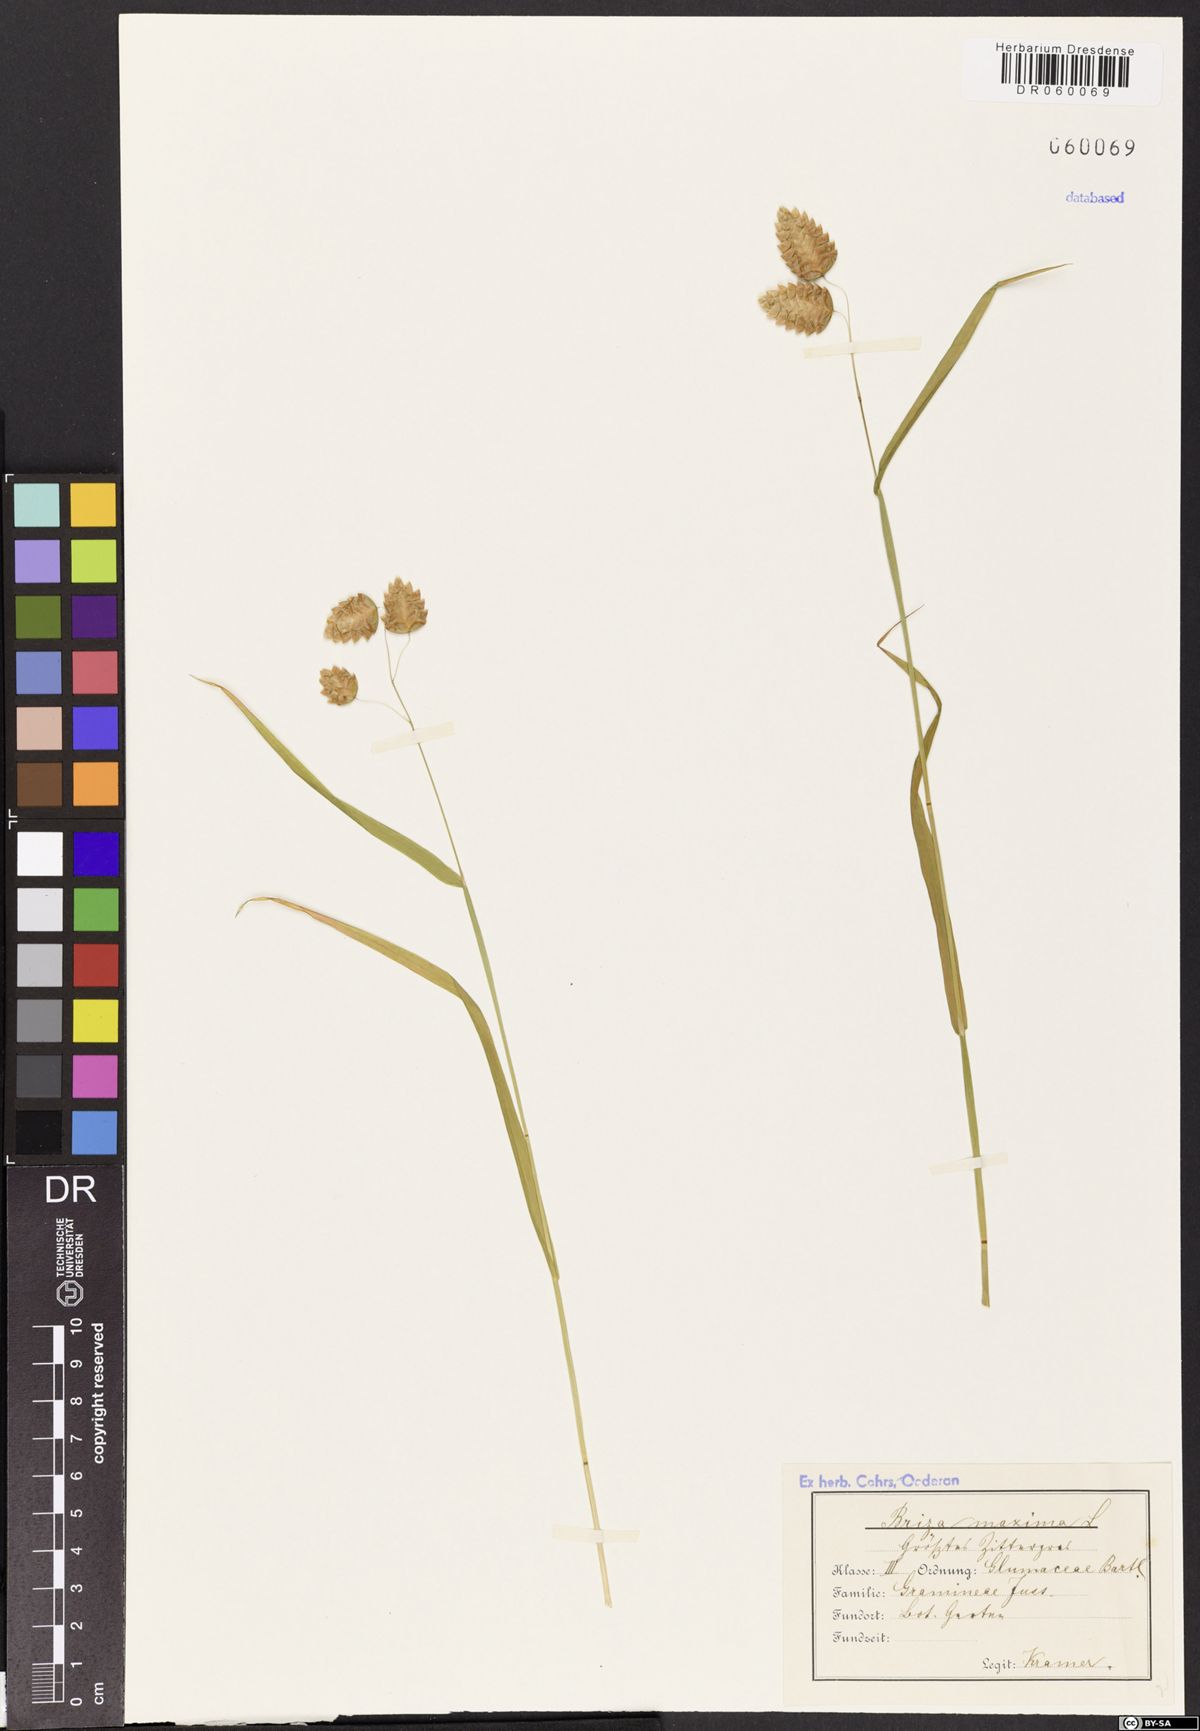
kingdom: Plantae
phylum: Tracheophyta
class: Liliopsida
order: Poales
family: Poaceae
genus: Briza
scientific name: Briza maxima
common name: Big quakinggrass
